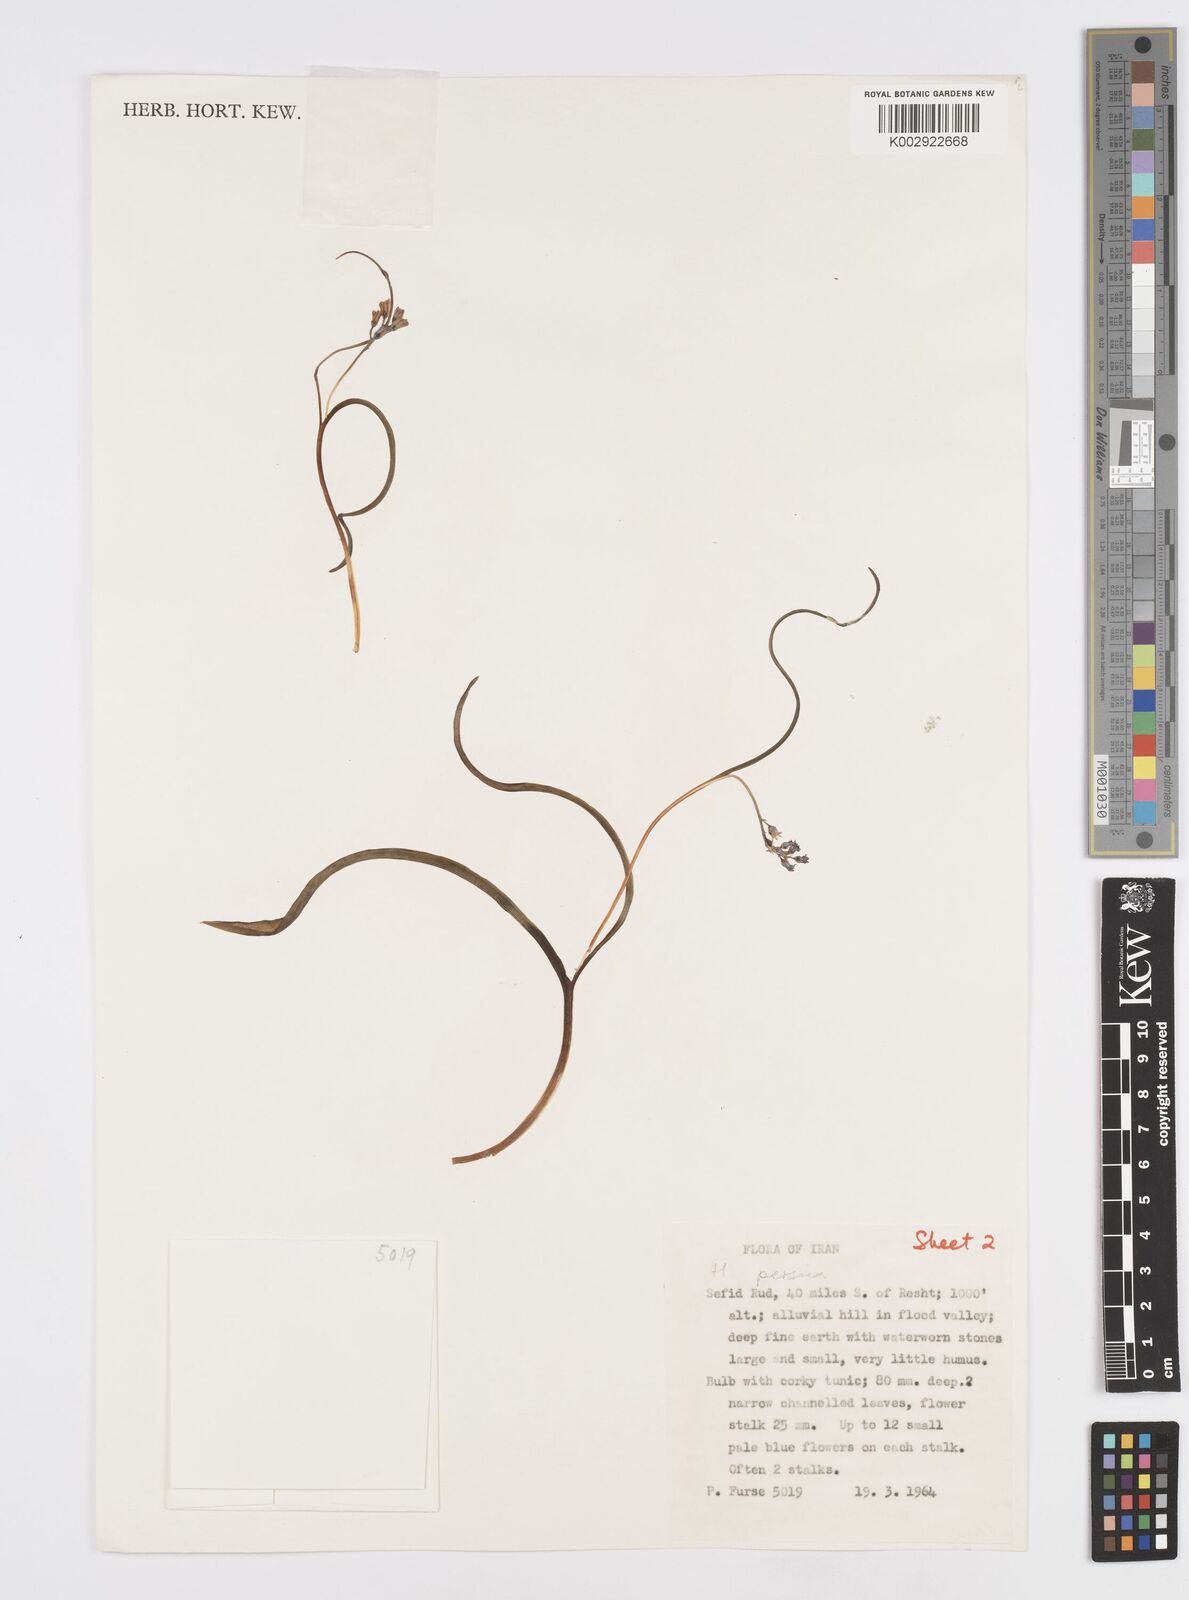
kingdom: Plantae
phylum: Tracheophyta
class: Liliopsida
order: Asparagales
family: Asparagaceae
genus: Hyacinthella
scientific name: Hyacinthella persica
